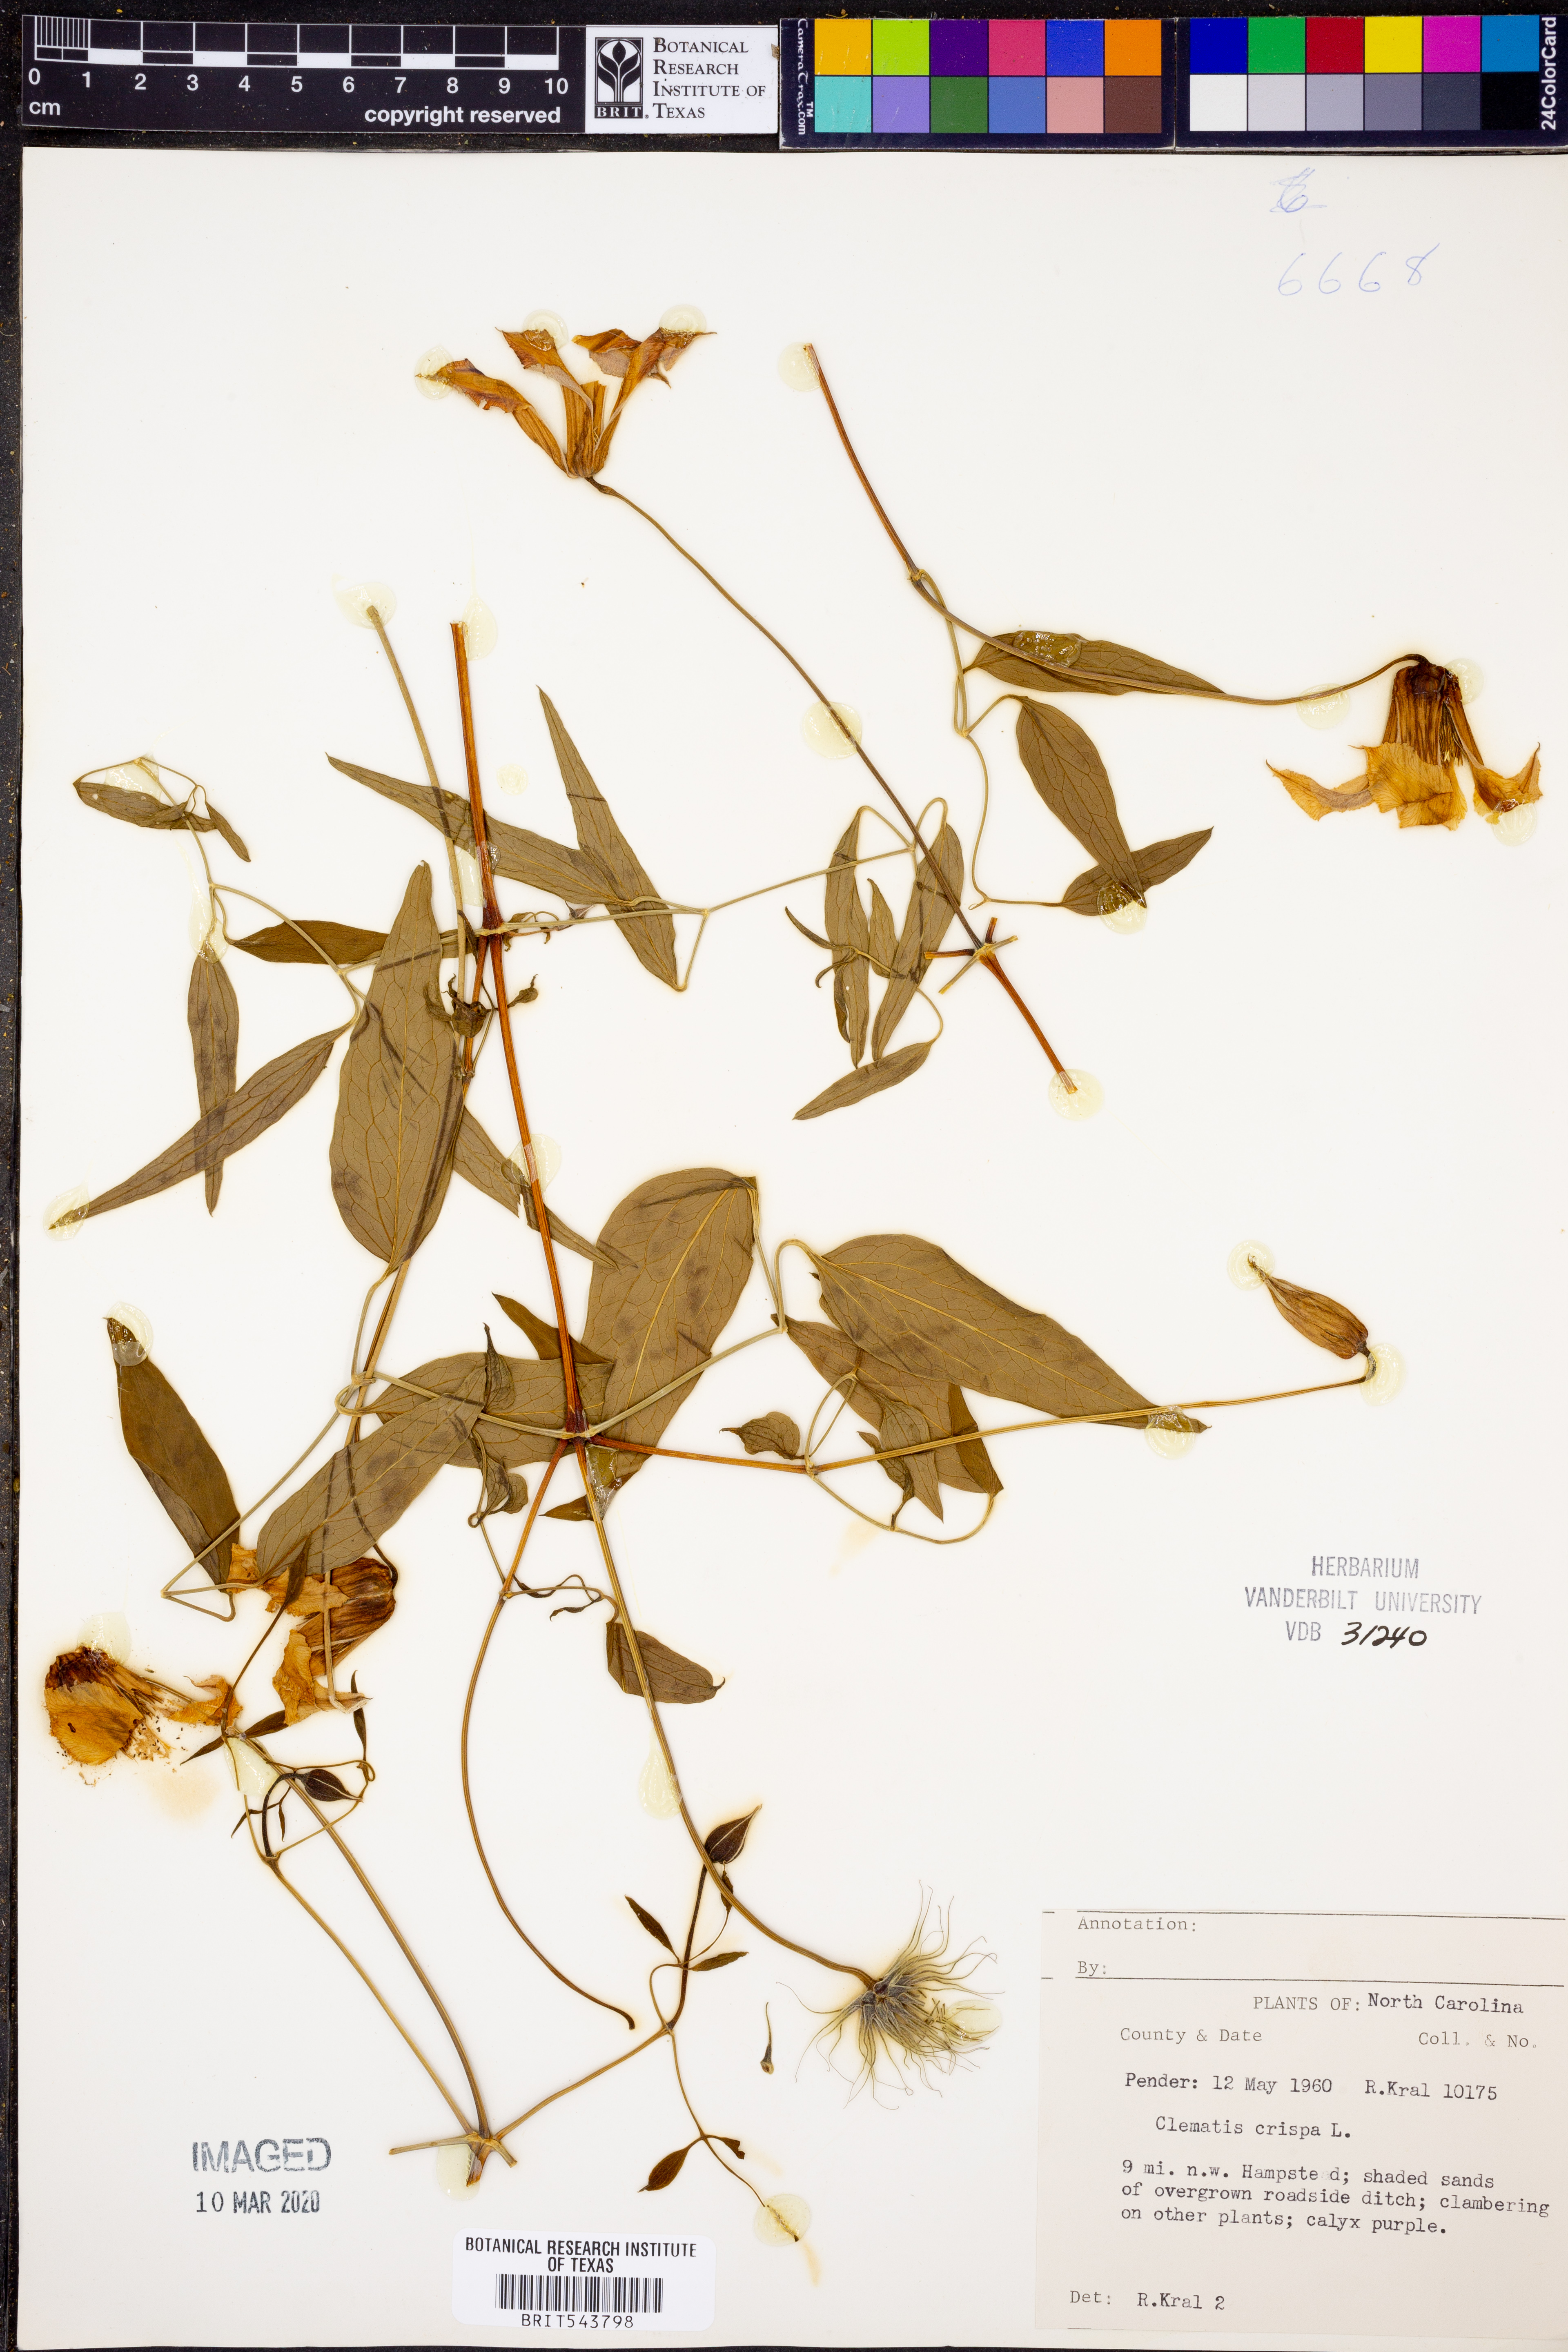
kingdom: Plantae
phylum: Tracheophyta
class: Magnoliopsida
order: Ranunculales
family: Ranunculaceae
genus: Clematis
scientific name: Clematis crispa
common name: Curly clematis
